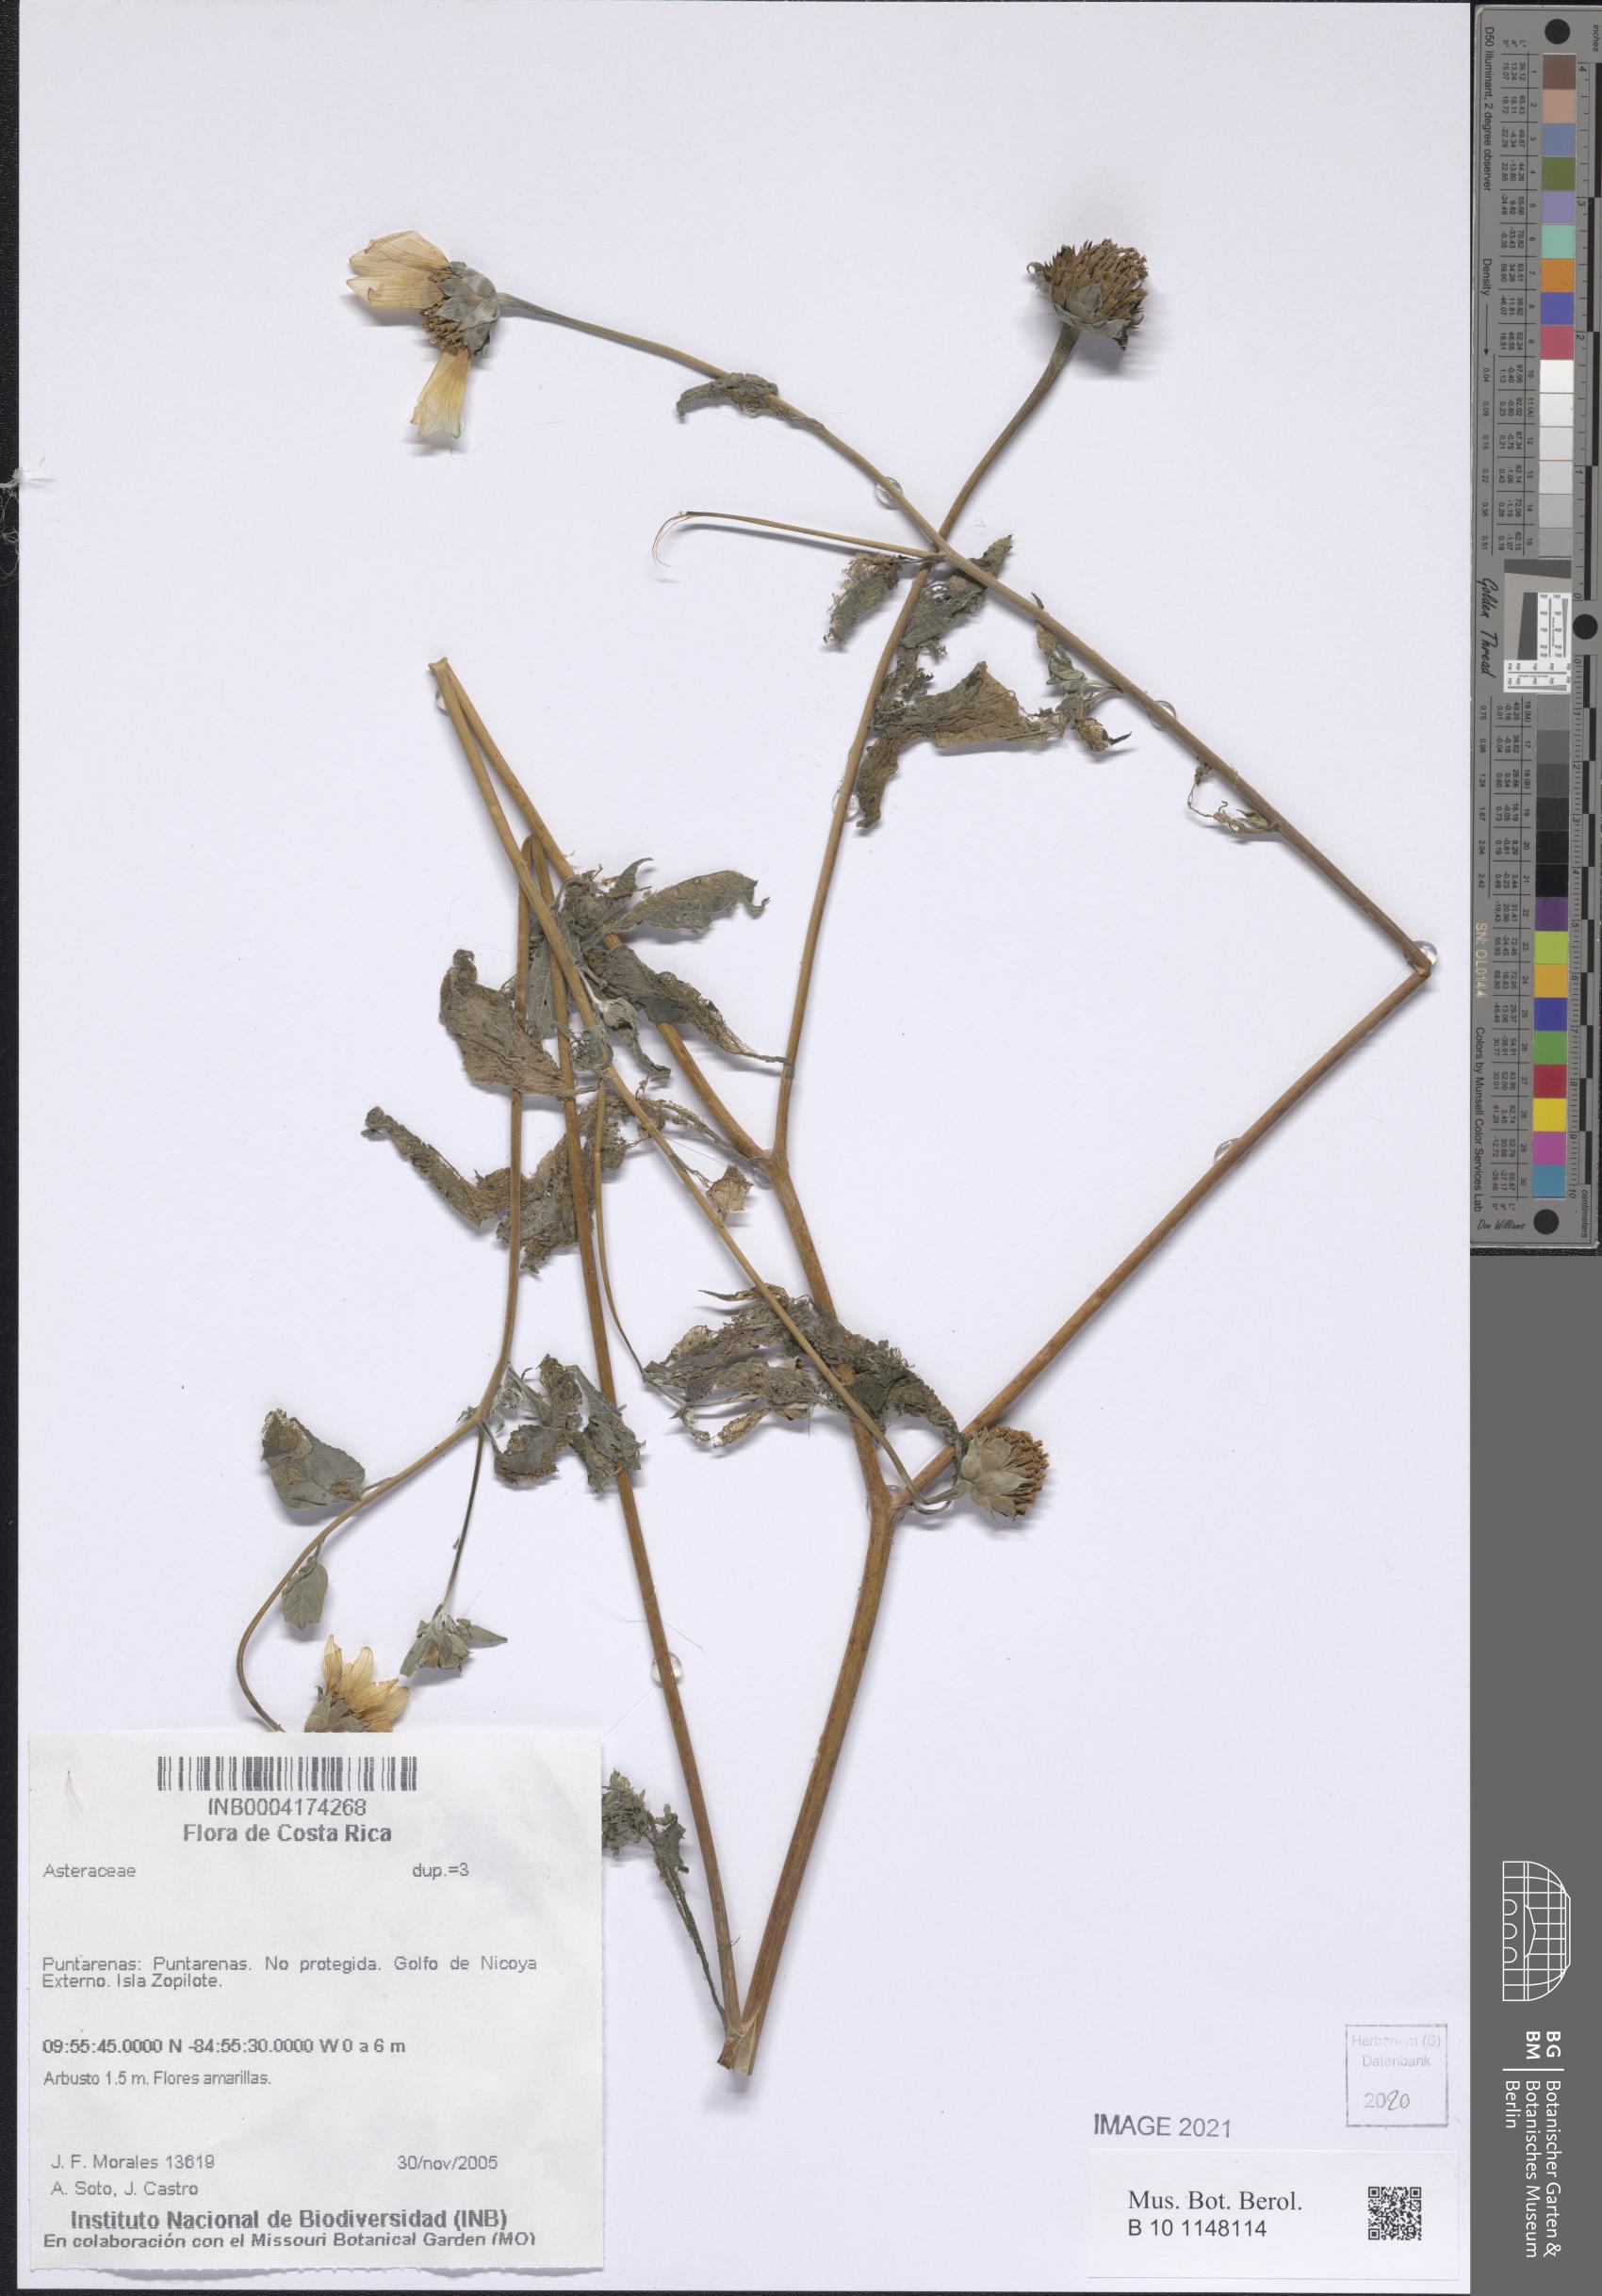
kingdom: Plantae
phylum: Tracheophyta
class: Magnoliopsida
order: Asterales
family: Asteraceae
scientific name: Asteraceae
